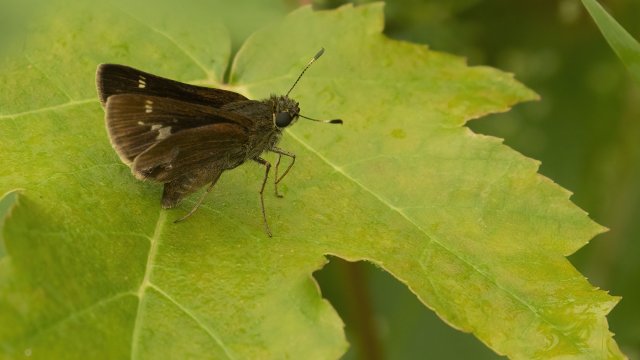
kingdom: Animalia
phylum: Arthropoda
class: Insecta
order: Lepidoptera
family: Hesperiidae
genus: Vernia
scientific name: Vernia verna
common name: Little Glassywing
